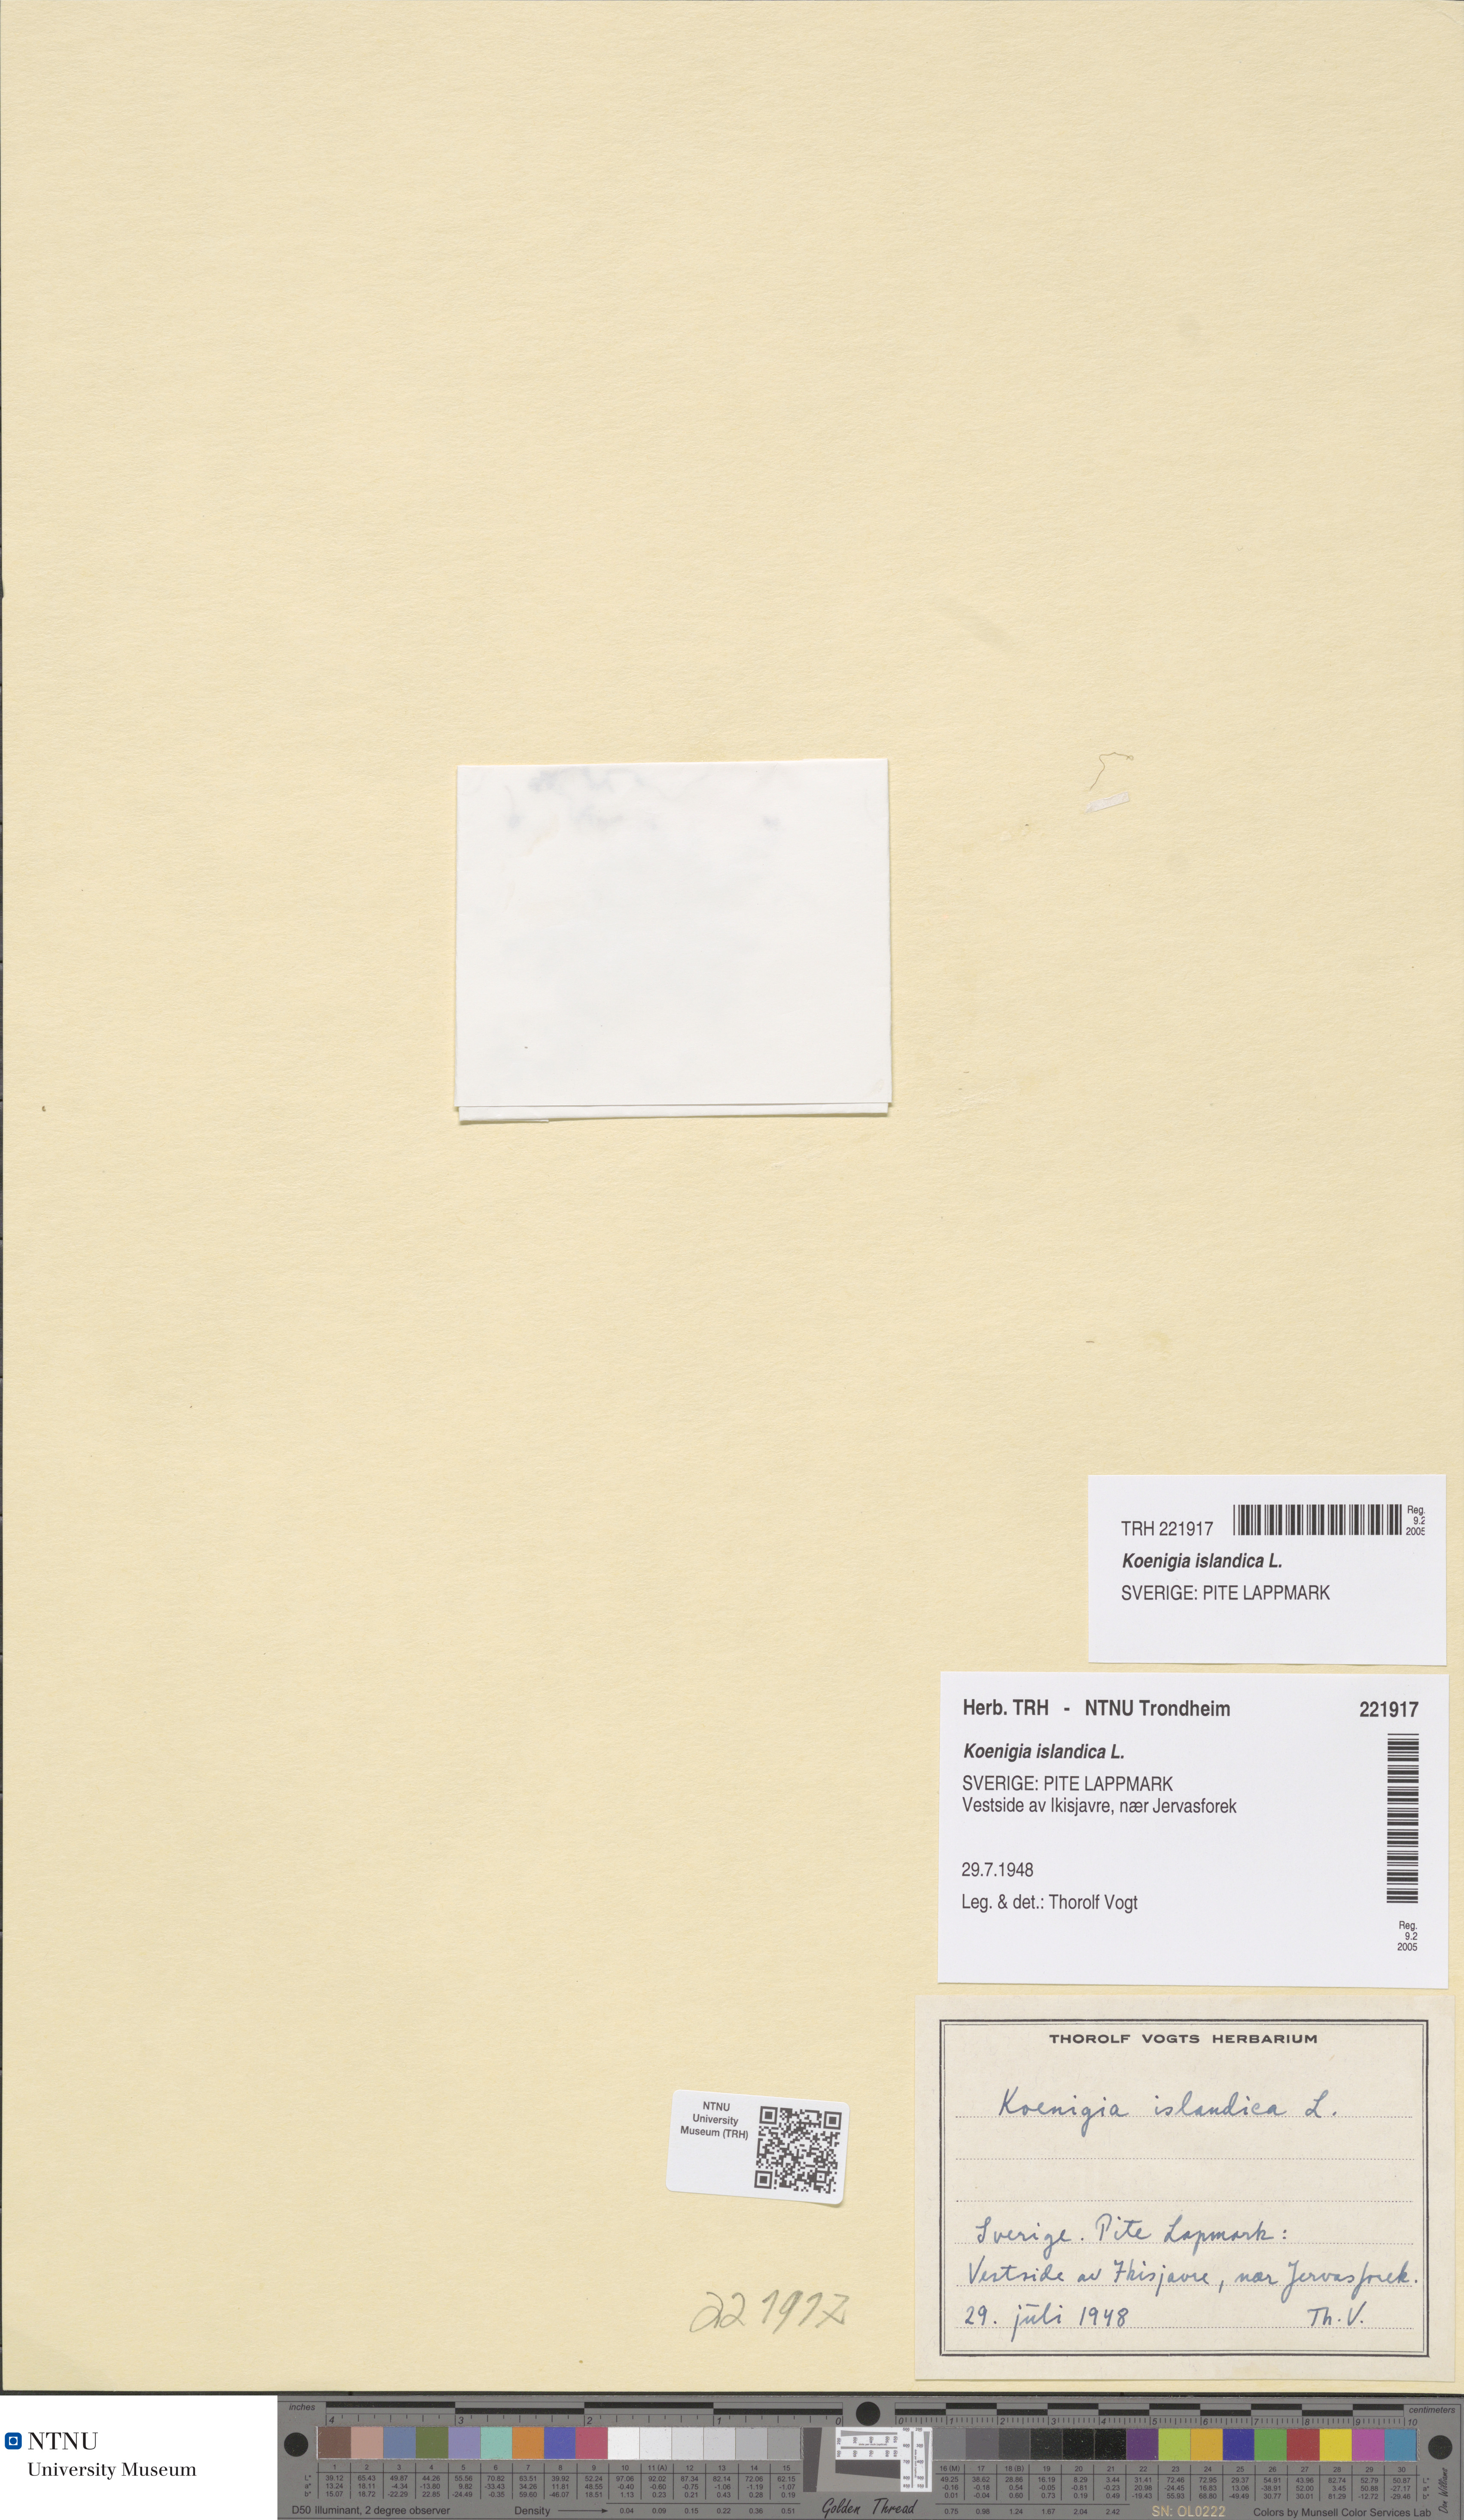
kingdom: Plantae
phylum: Tracheophyta
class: Magnoliopsida
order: Caryophyllales
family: Polygonaceae
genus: Koenigia
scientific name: Koenigia islandica
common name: Iceland-purslane
